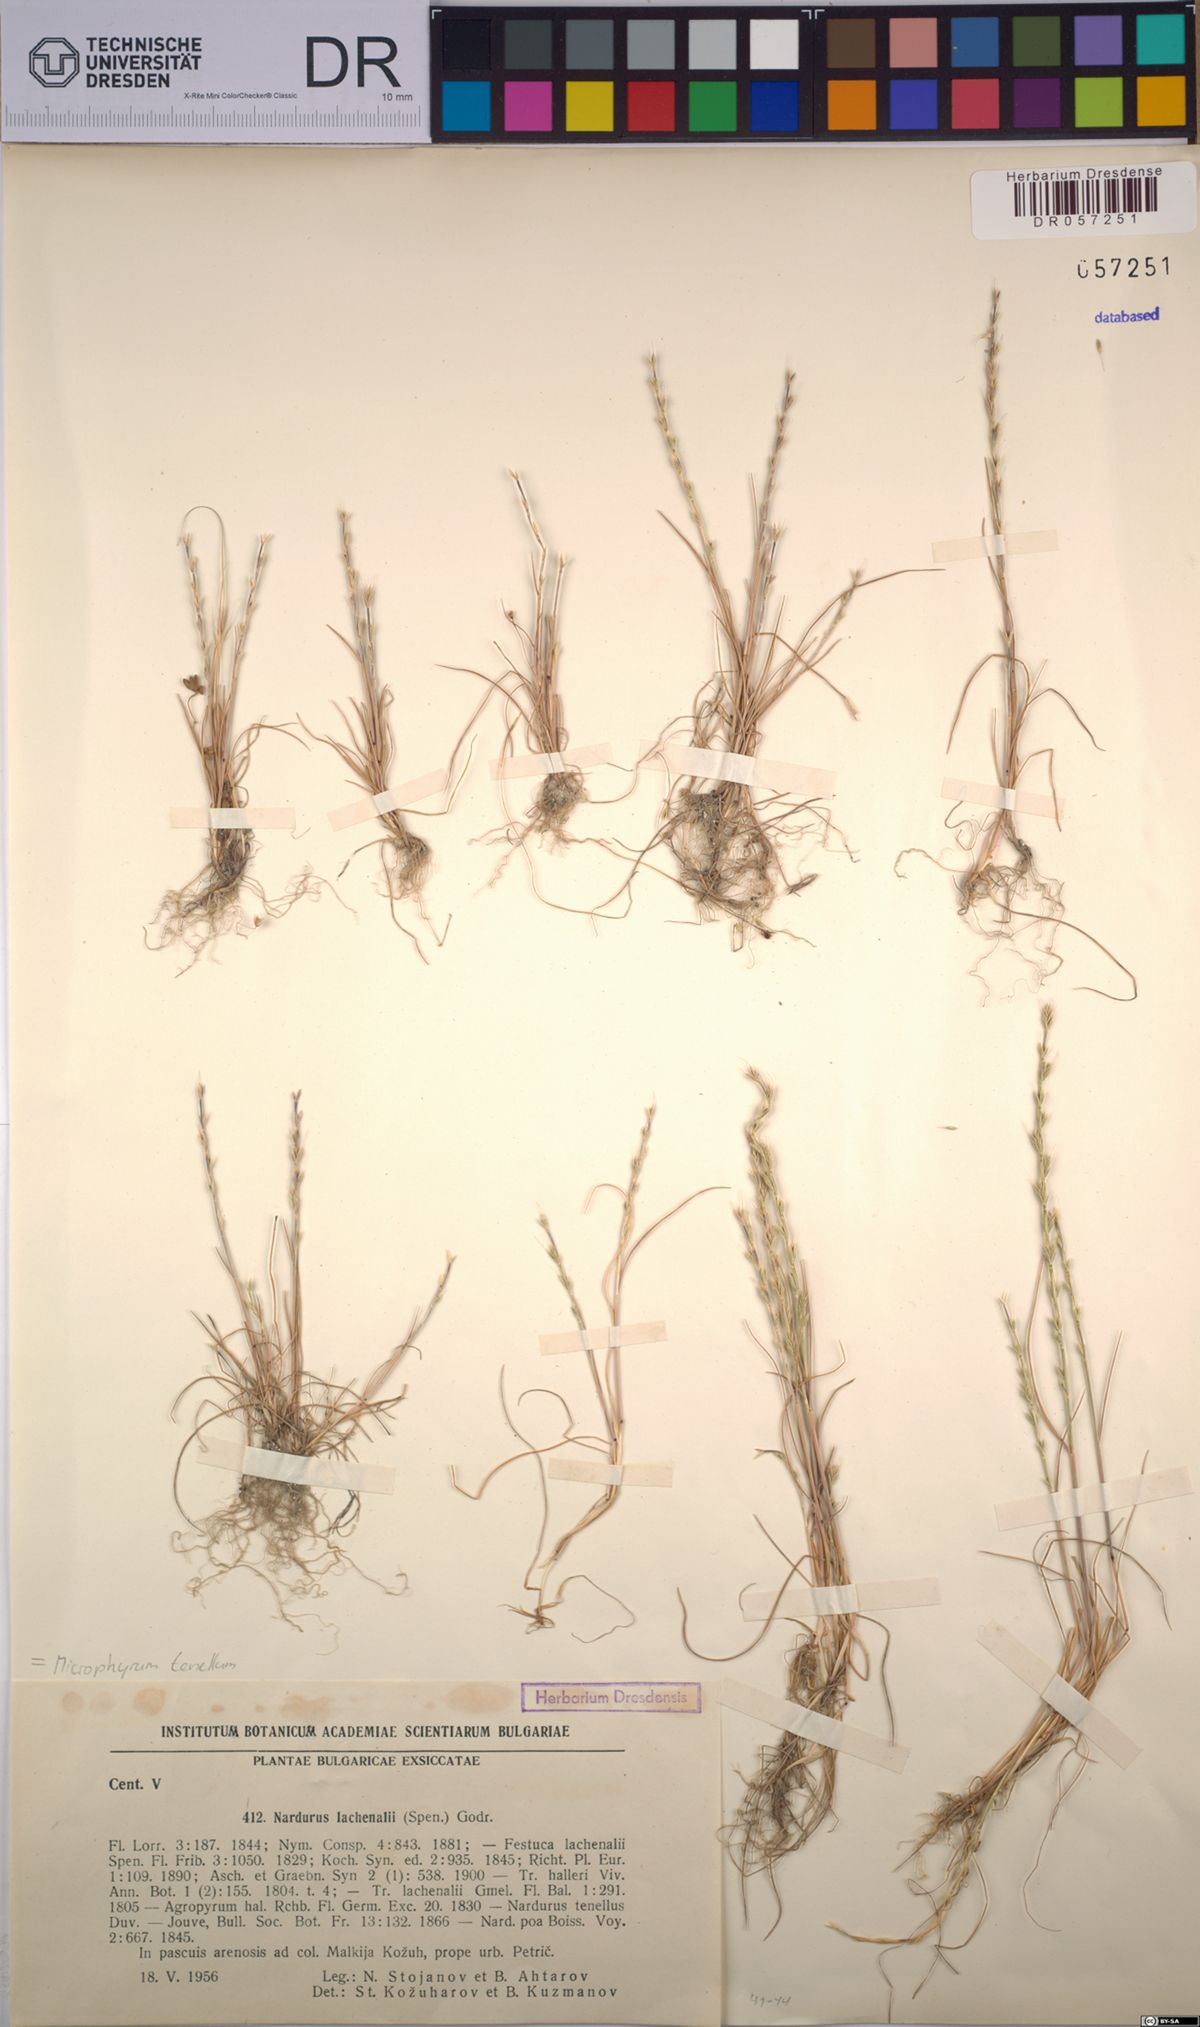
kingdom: Plantae
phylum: Tracheophyta
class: Liliopsida
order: Poales
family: Poaceae
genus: Festuca
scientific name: Festuca lachenalii
